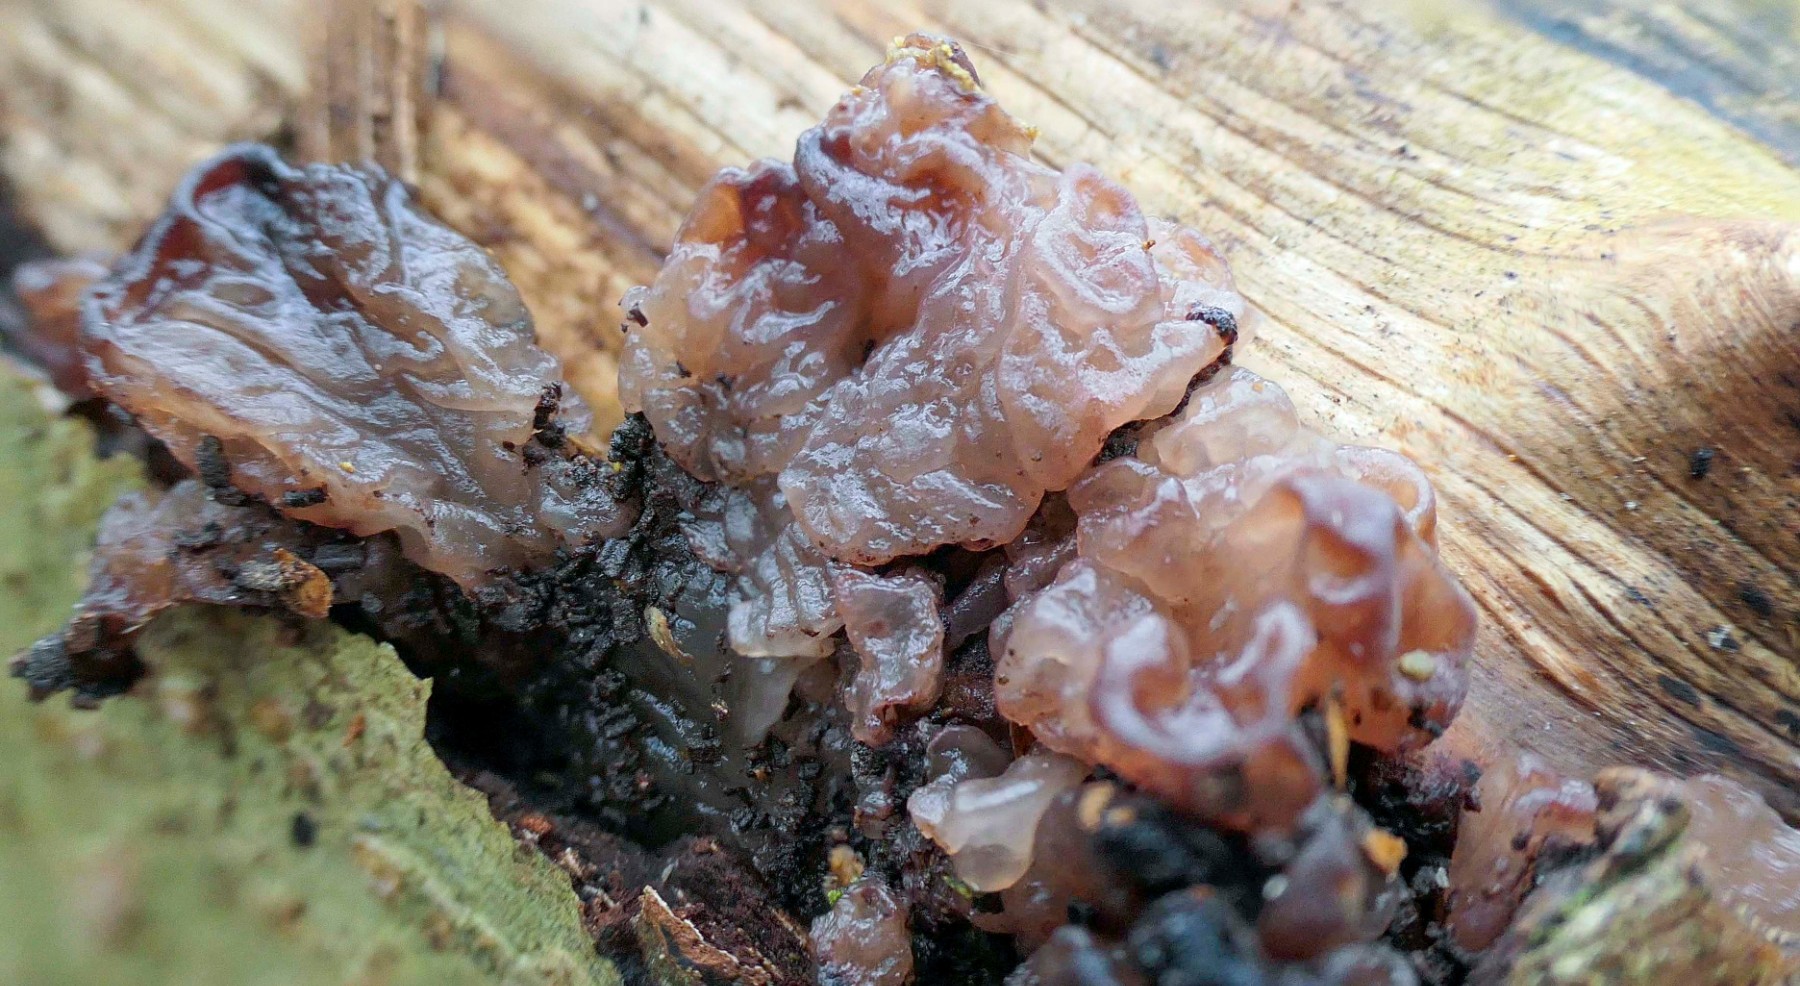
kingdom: Fungi
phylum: Ascomycota
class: Leotiomycetes
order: Helotiales
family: Gelatinodiscaceae
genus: Ascotremella
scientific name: Ascotremella faginea
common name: hjerne-bævreskive
